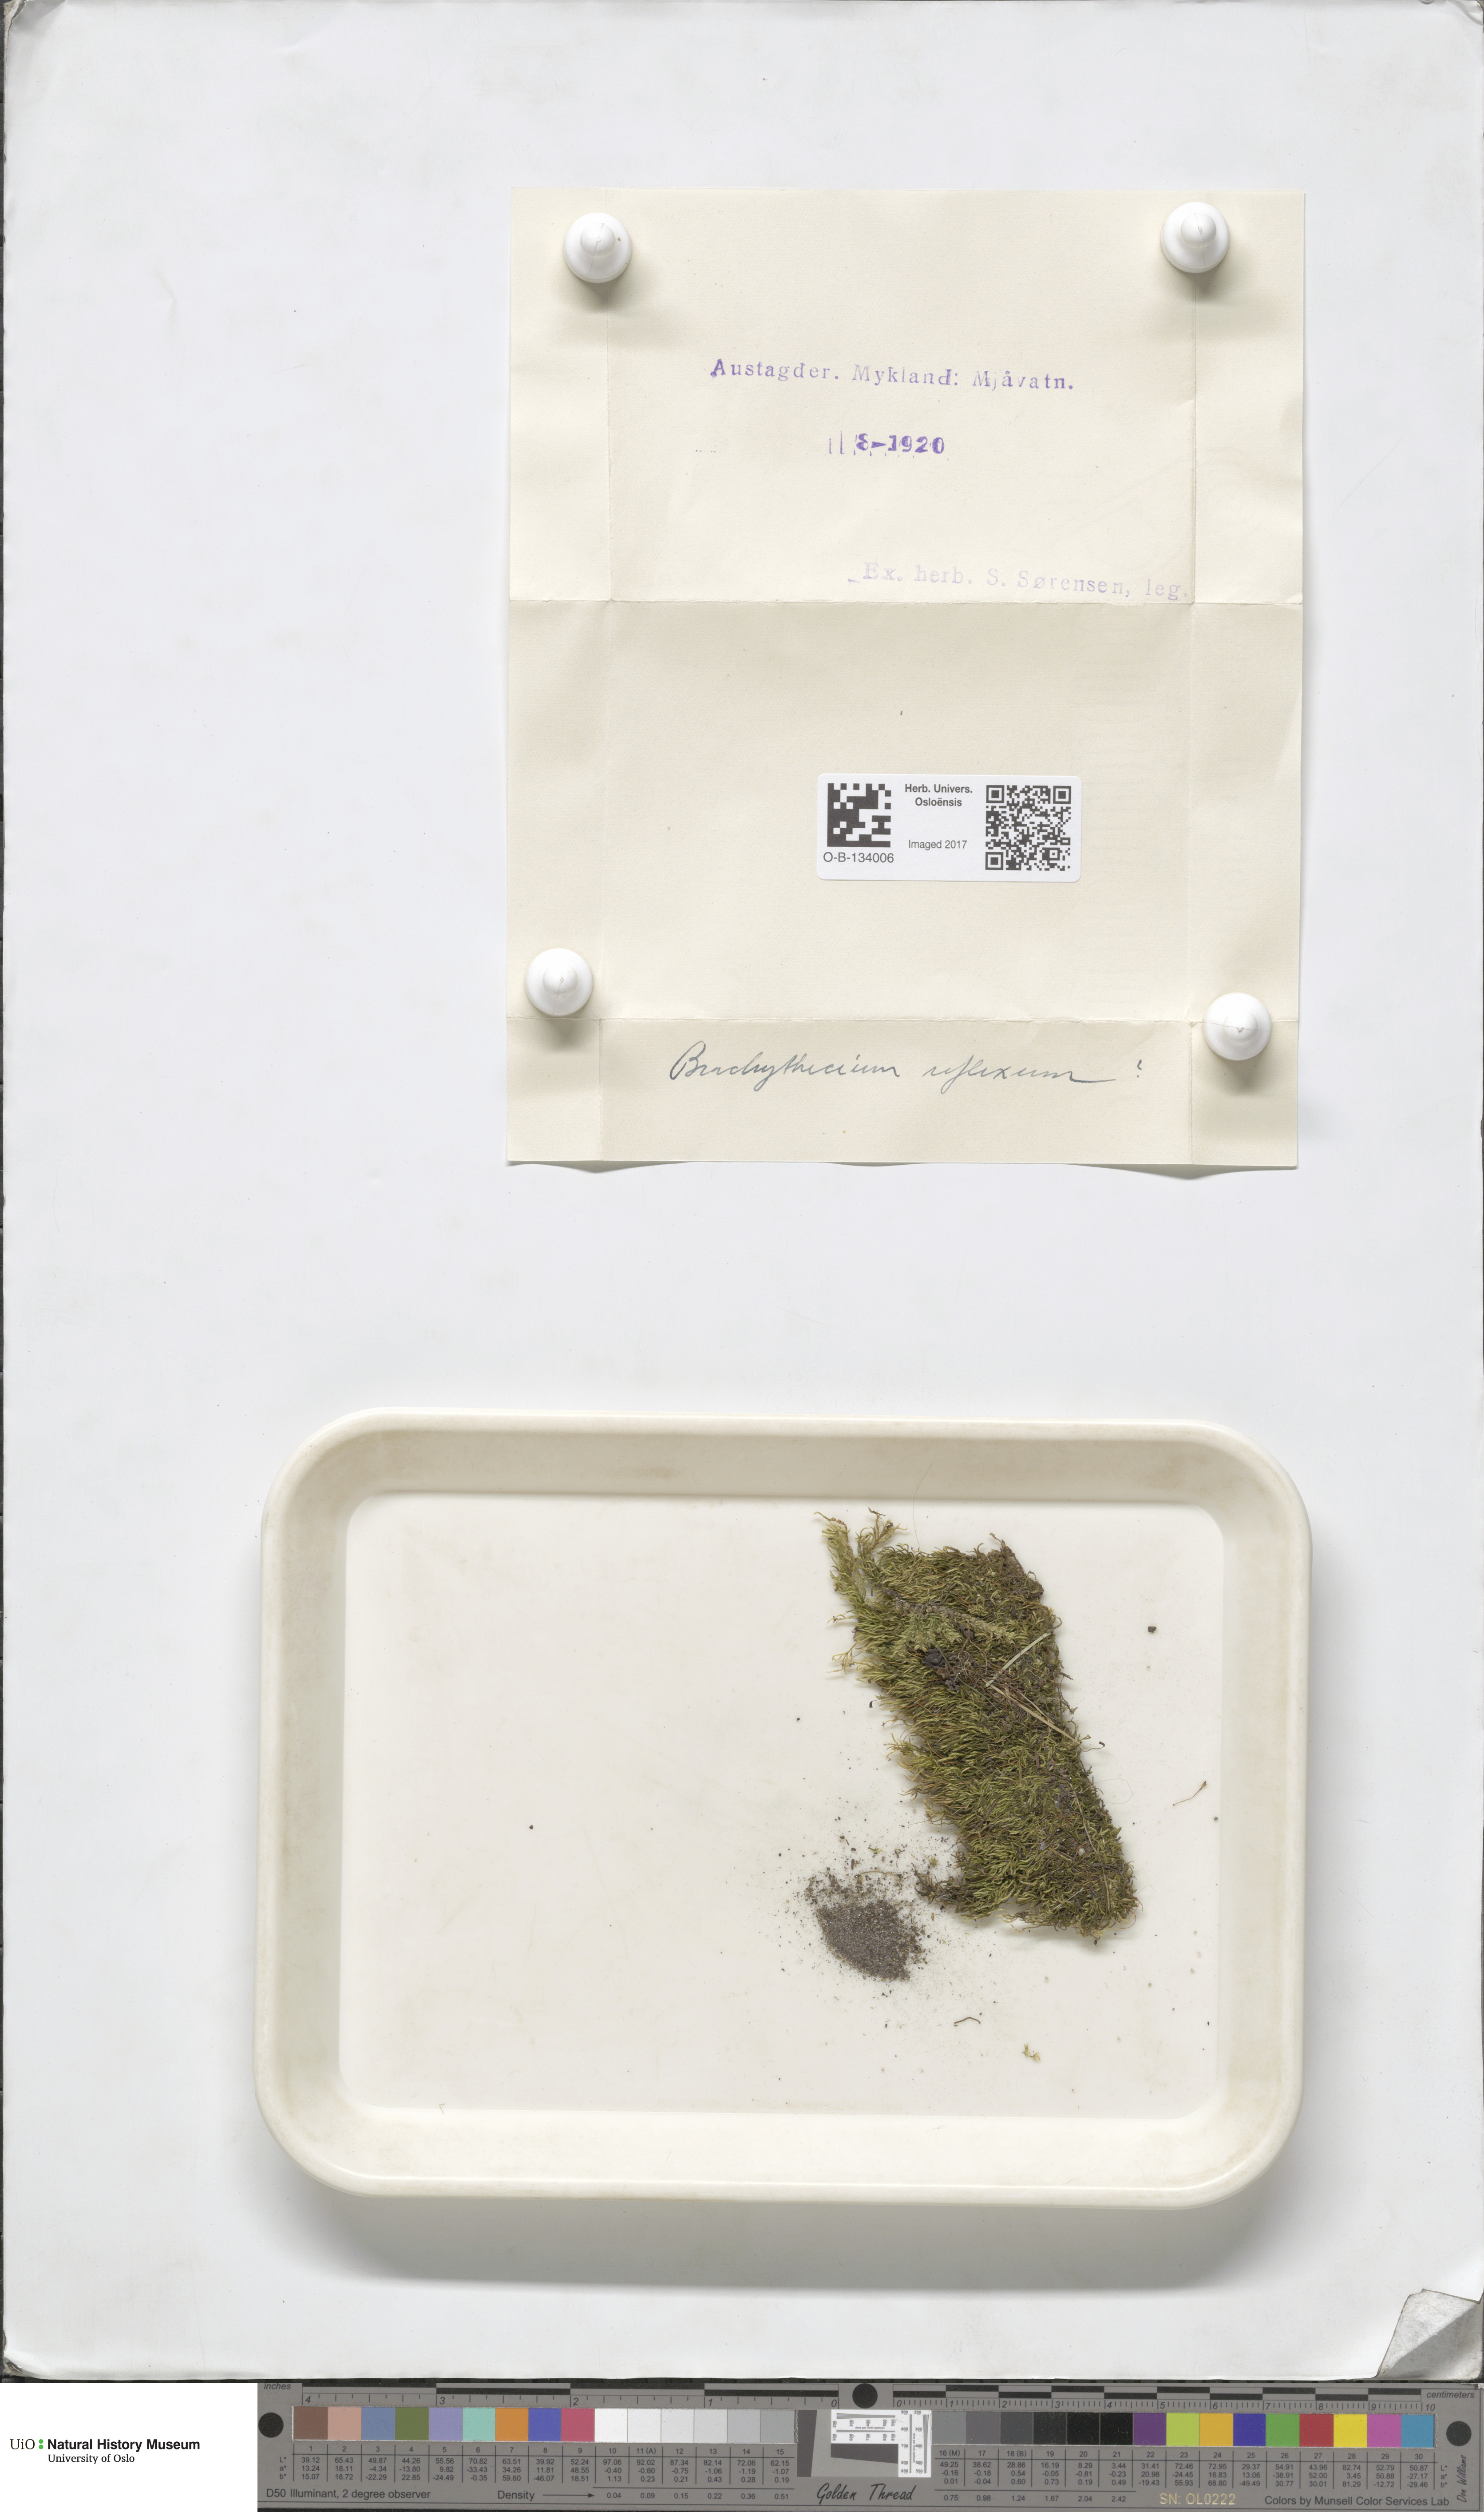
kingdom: Plantae
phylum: Bryophyta
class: Bryopsida
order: Hypnales
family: Brachytheciaceae
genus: Sciuro-hypnum
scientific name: Sciuro-hypnum reflexum
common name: Reflexed feather-moss
